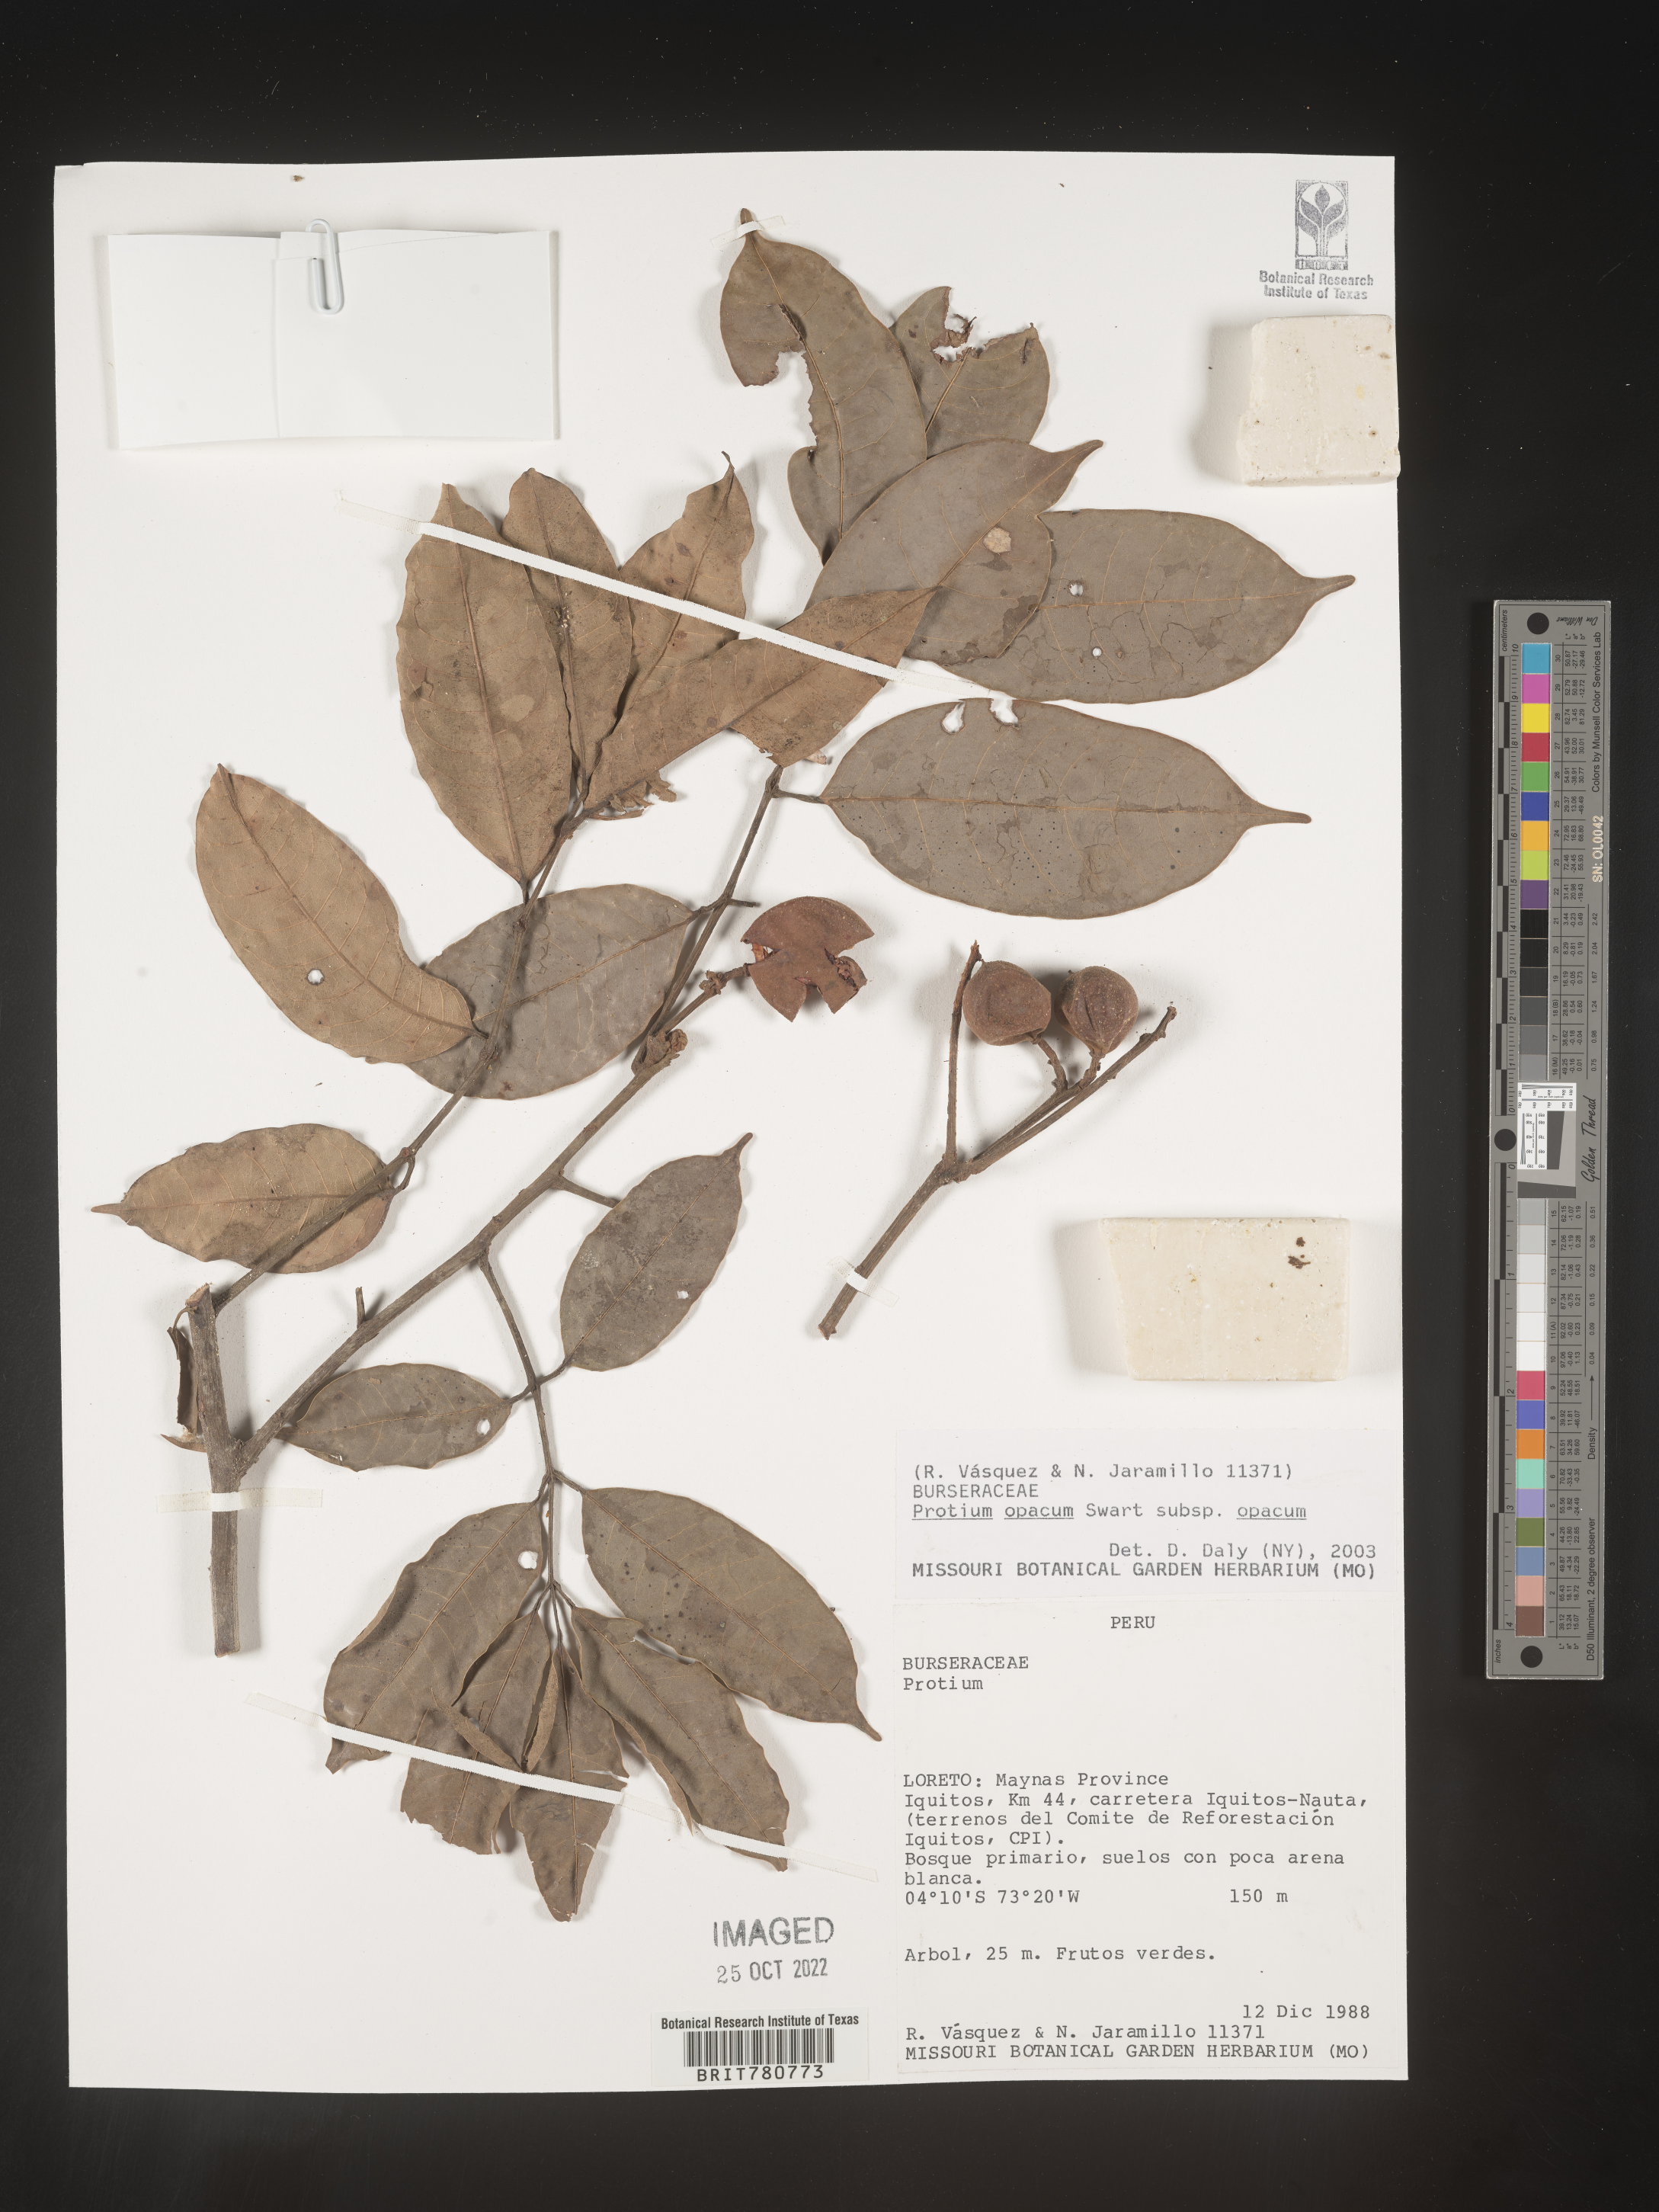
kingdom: Plantae
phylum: Tracheophyta
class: Magnoliopsida
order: Sapindales
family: Burseraceae
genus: Protium
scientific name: Protium opacum
